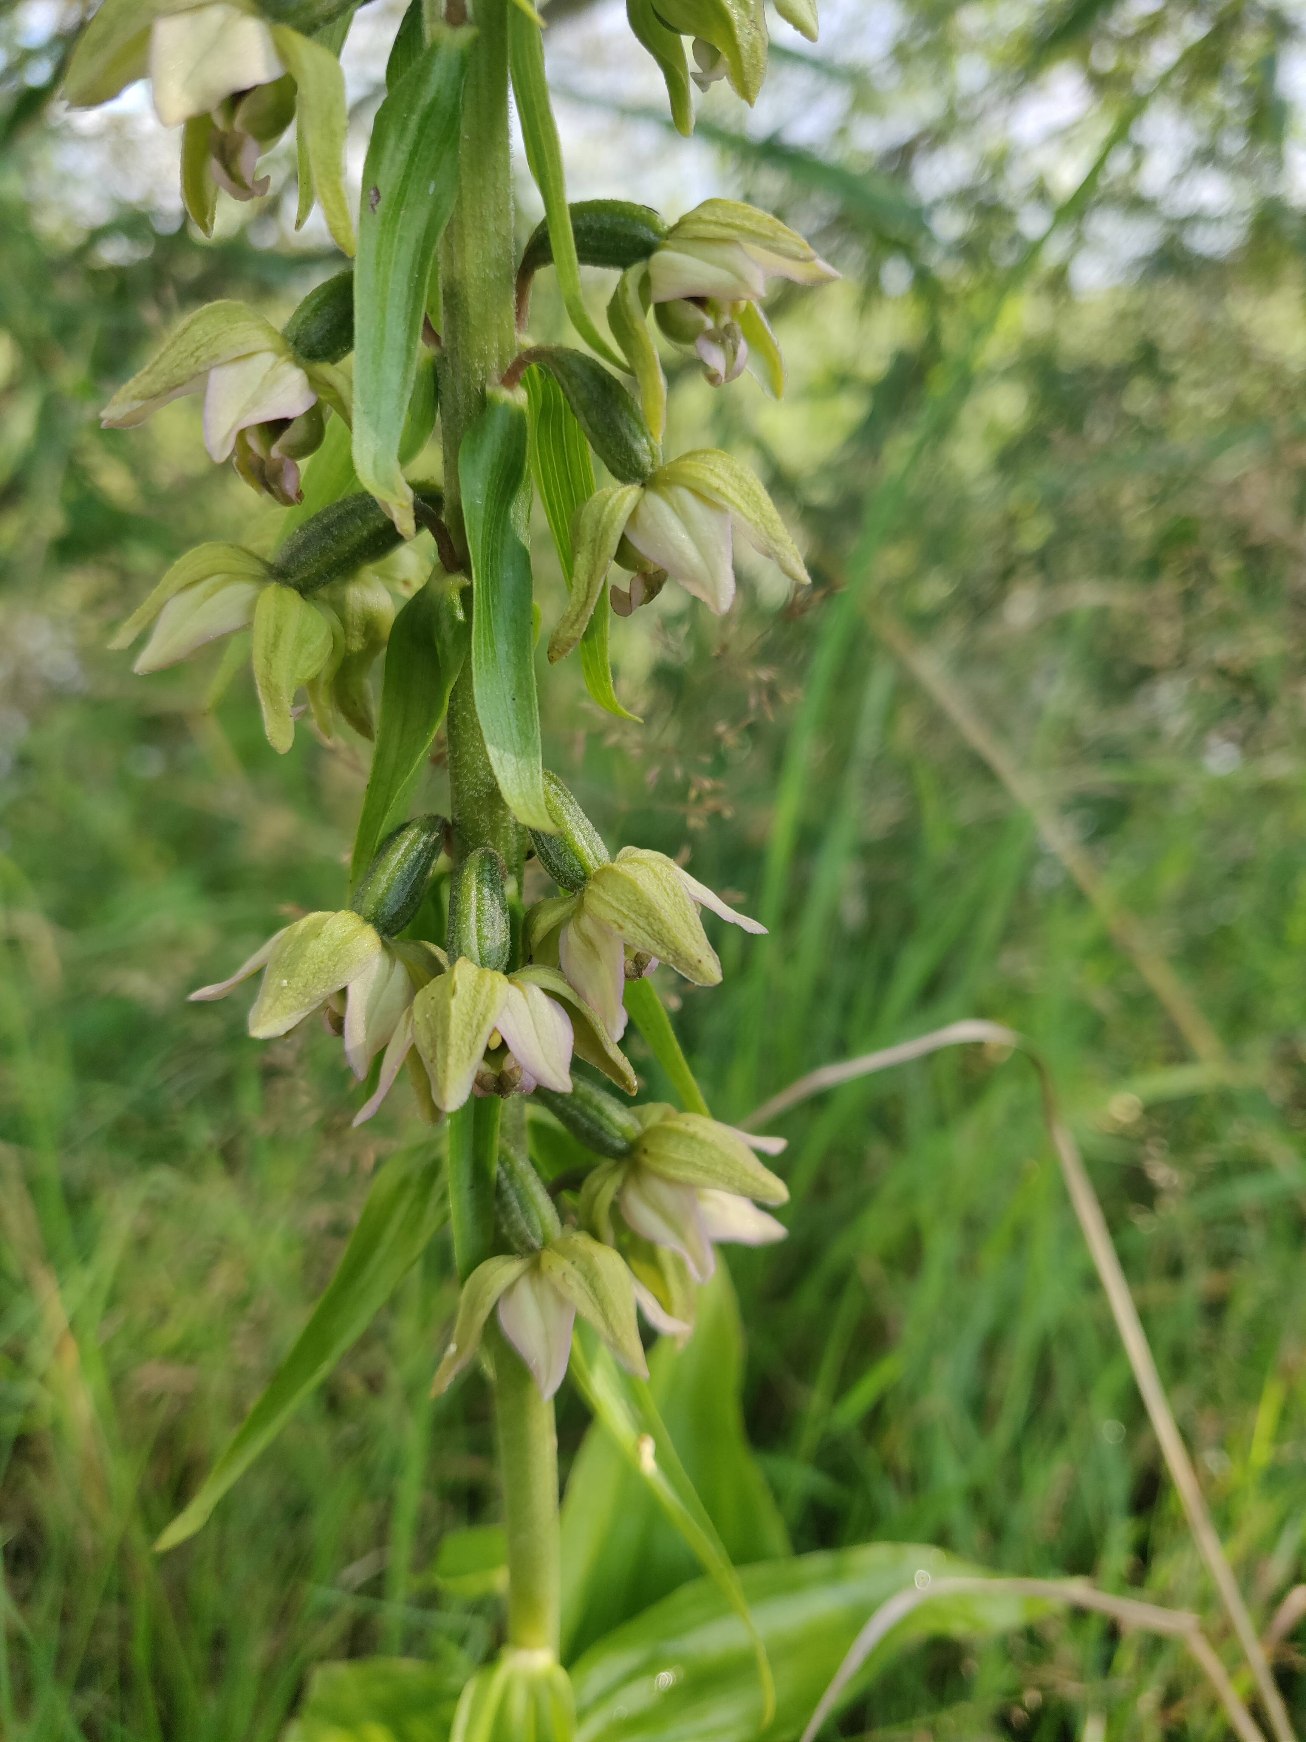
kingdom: Plantae
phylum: Tracheophyta
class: Liliopsida
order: Asparagales
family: Orchidaceae
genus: Epipactis
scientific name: Epipactis helleborine
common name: Skov-hullæbe
